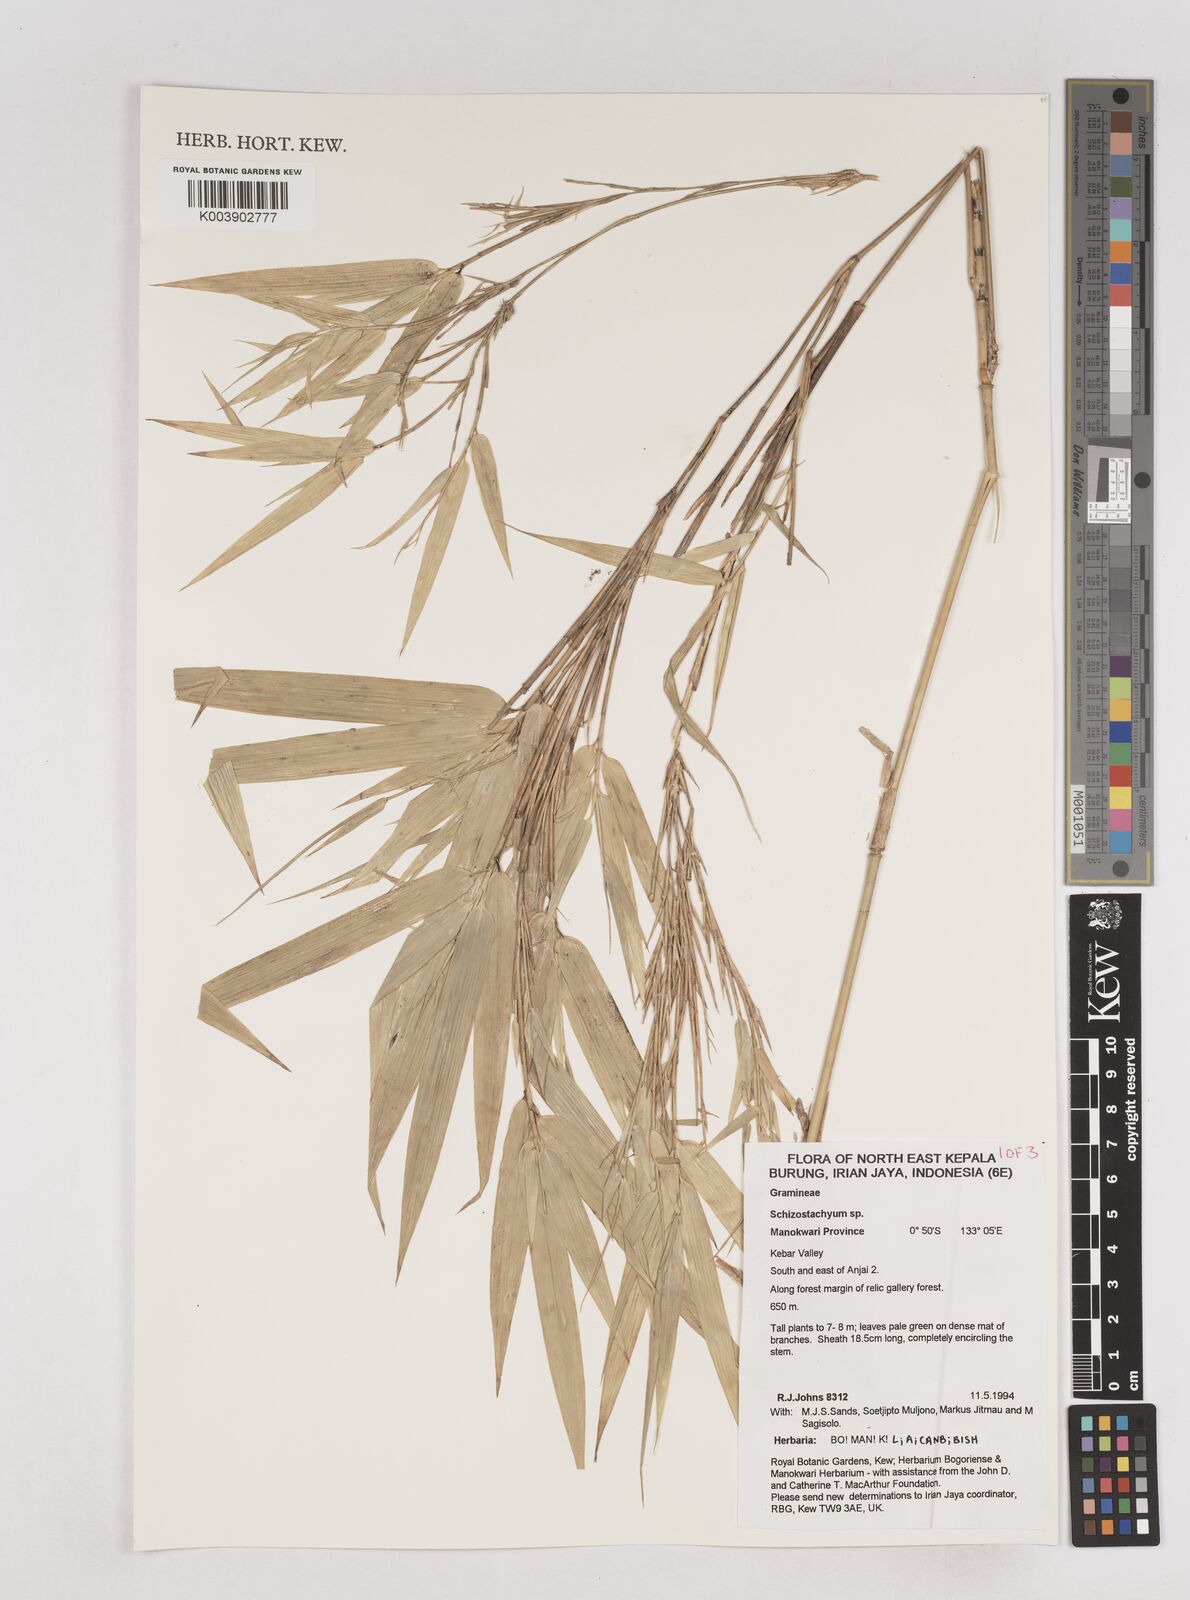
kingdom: Plantae
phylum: Tracheophyta
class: Liliopsida
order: Poales
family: Poaceae
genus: Schizostachyum
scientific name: Schizostachyum
